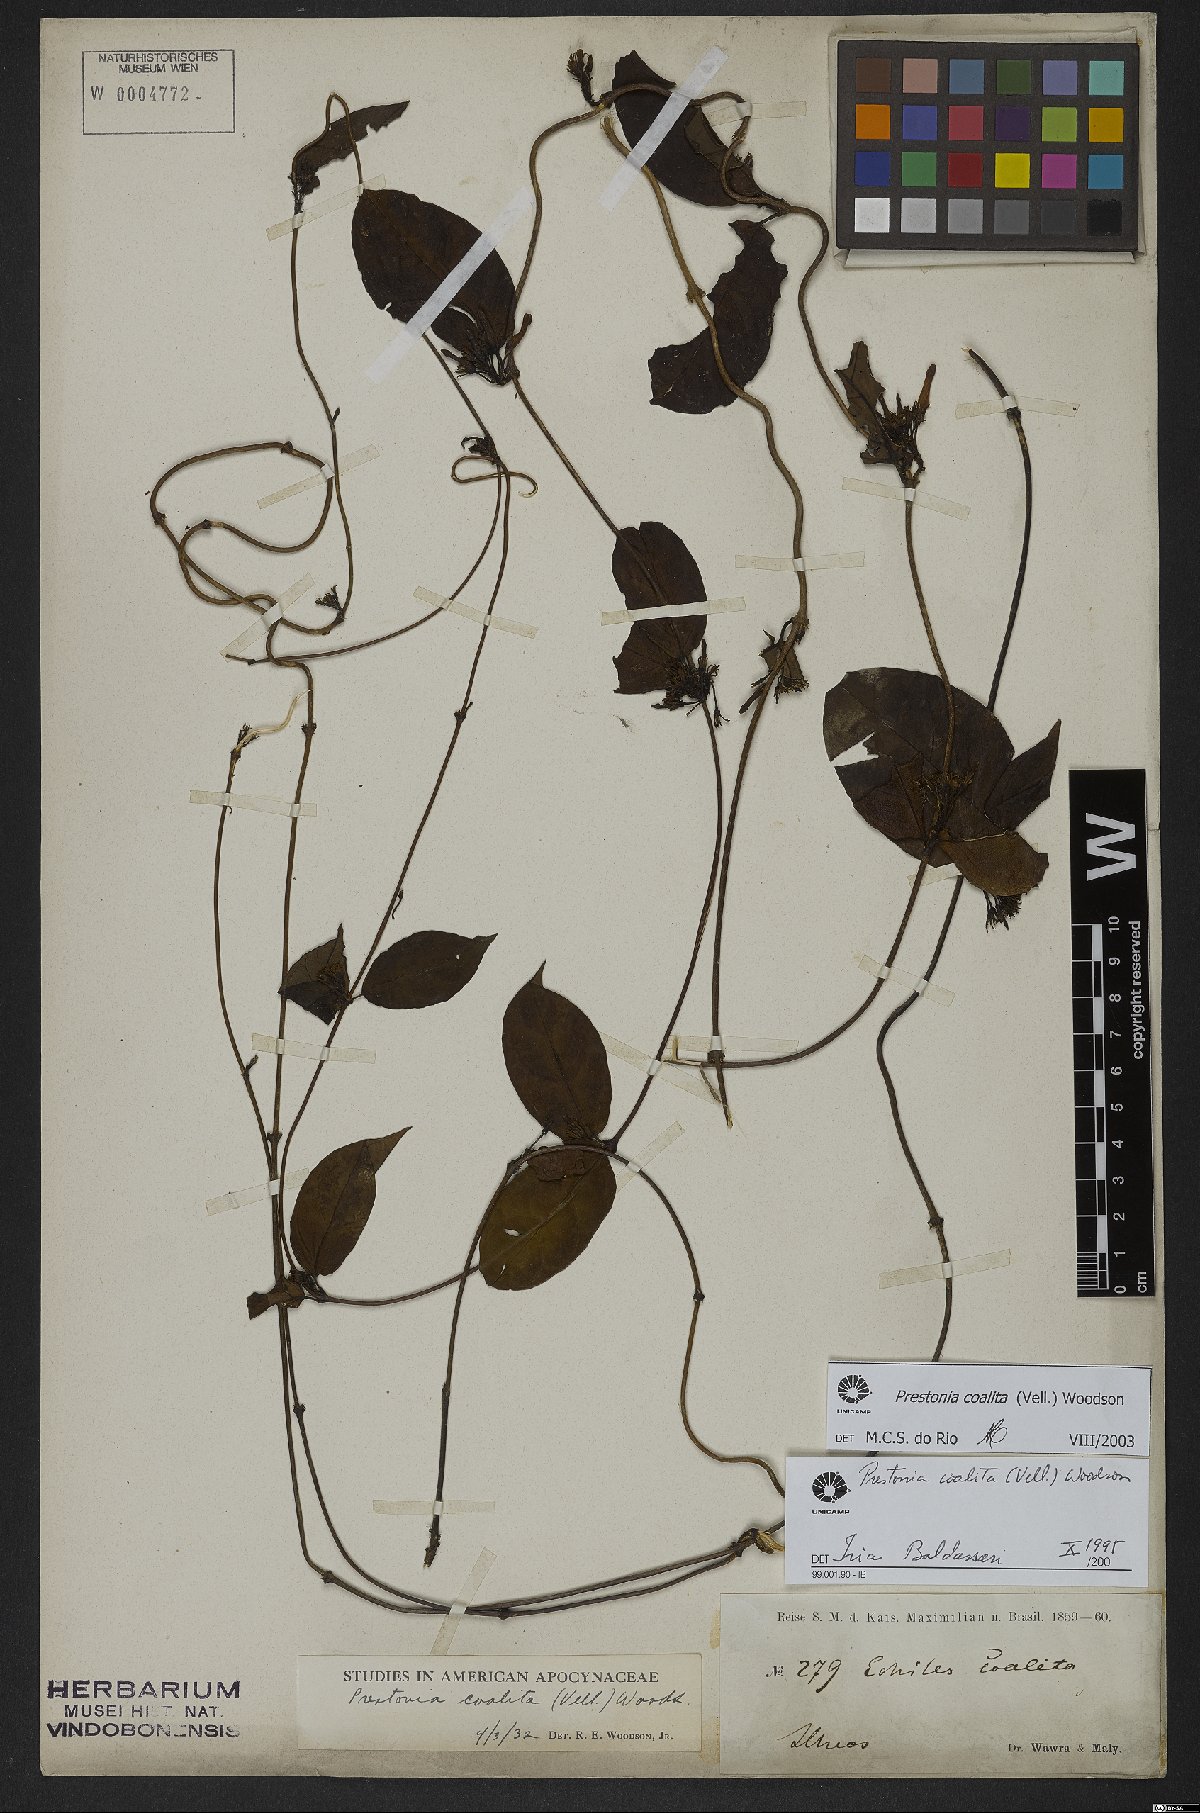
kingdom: Plantae
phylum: Tracheophyta
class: Magnoliopsida
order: Gentianales
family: Apocynaceae
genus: Prestonia
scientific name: Prestonia coalita
